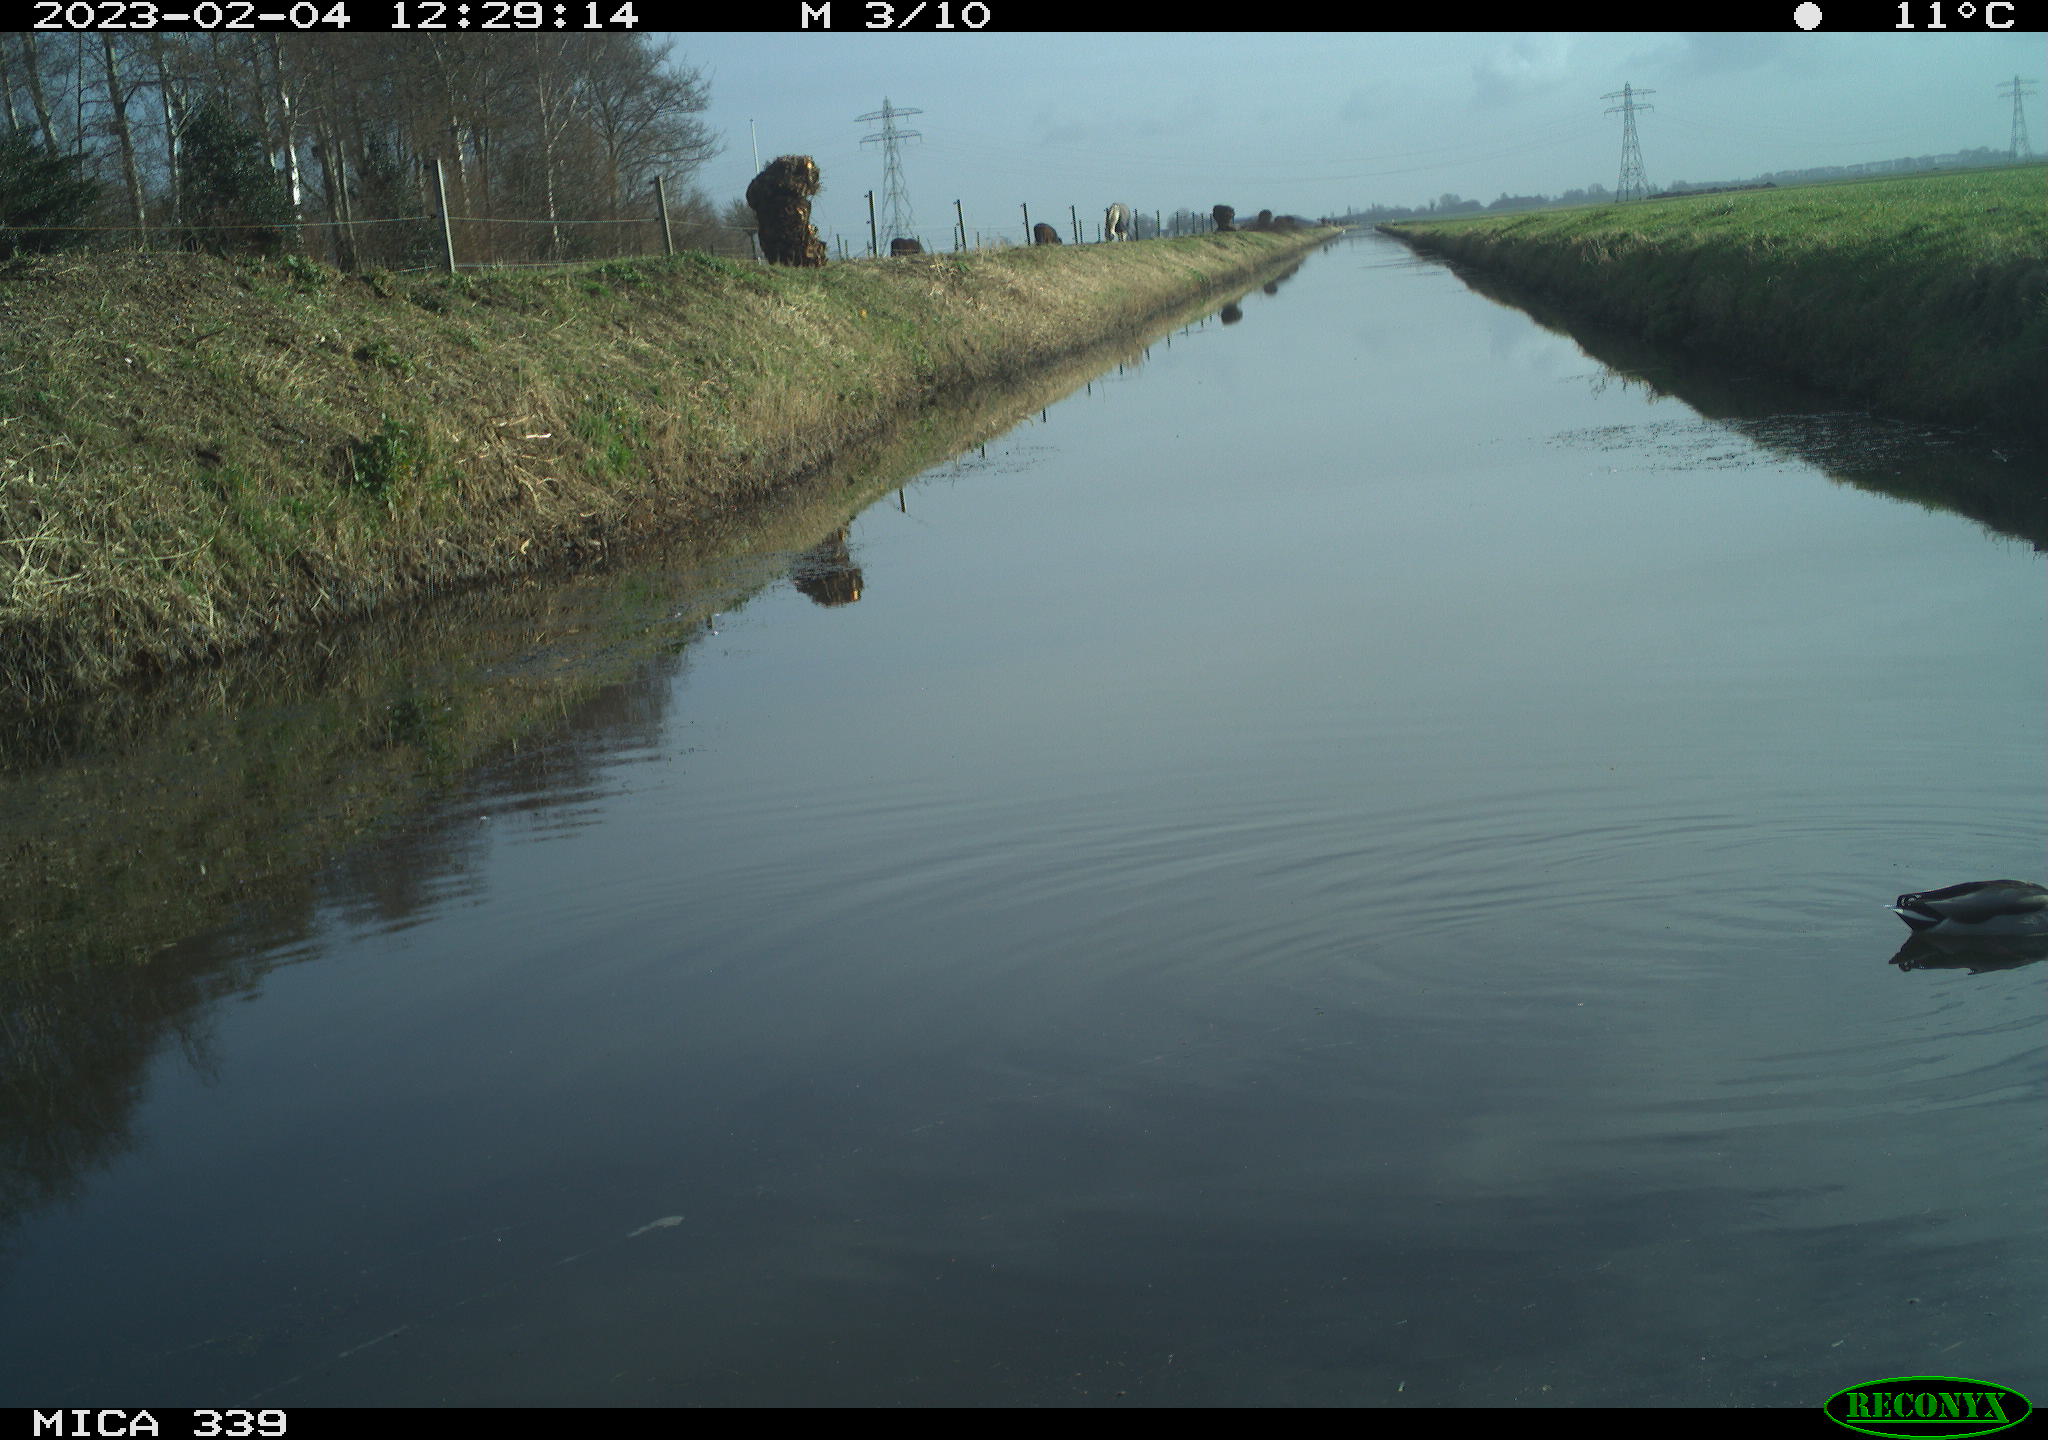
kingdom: Animalia
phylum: Chordata
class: Aves
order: Anseriformes
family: Anatidae
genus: Anas
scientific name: Anas
